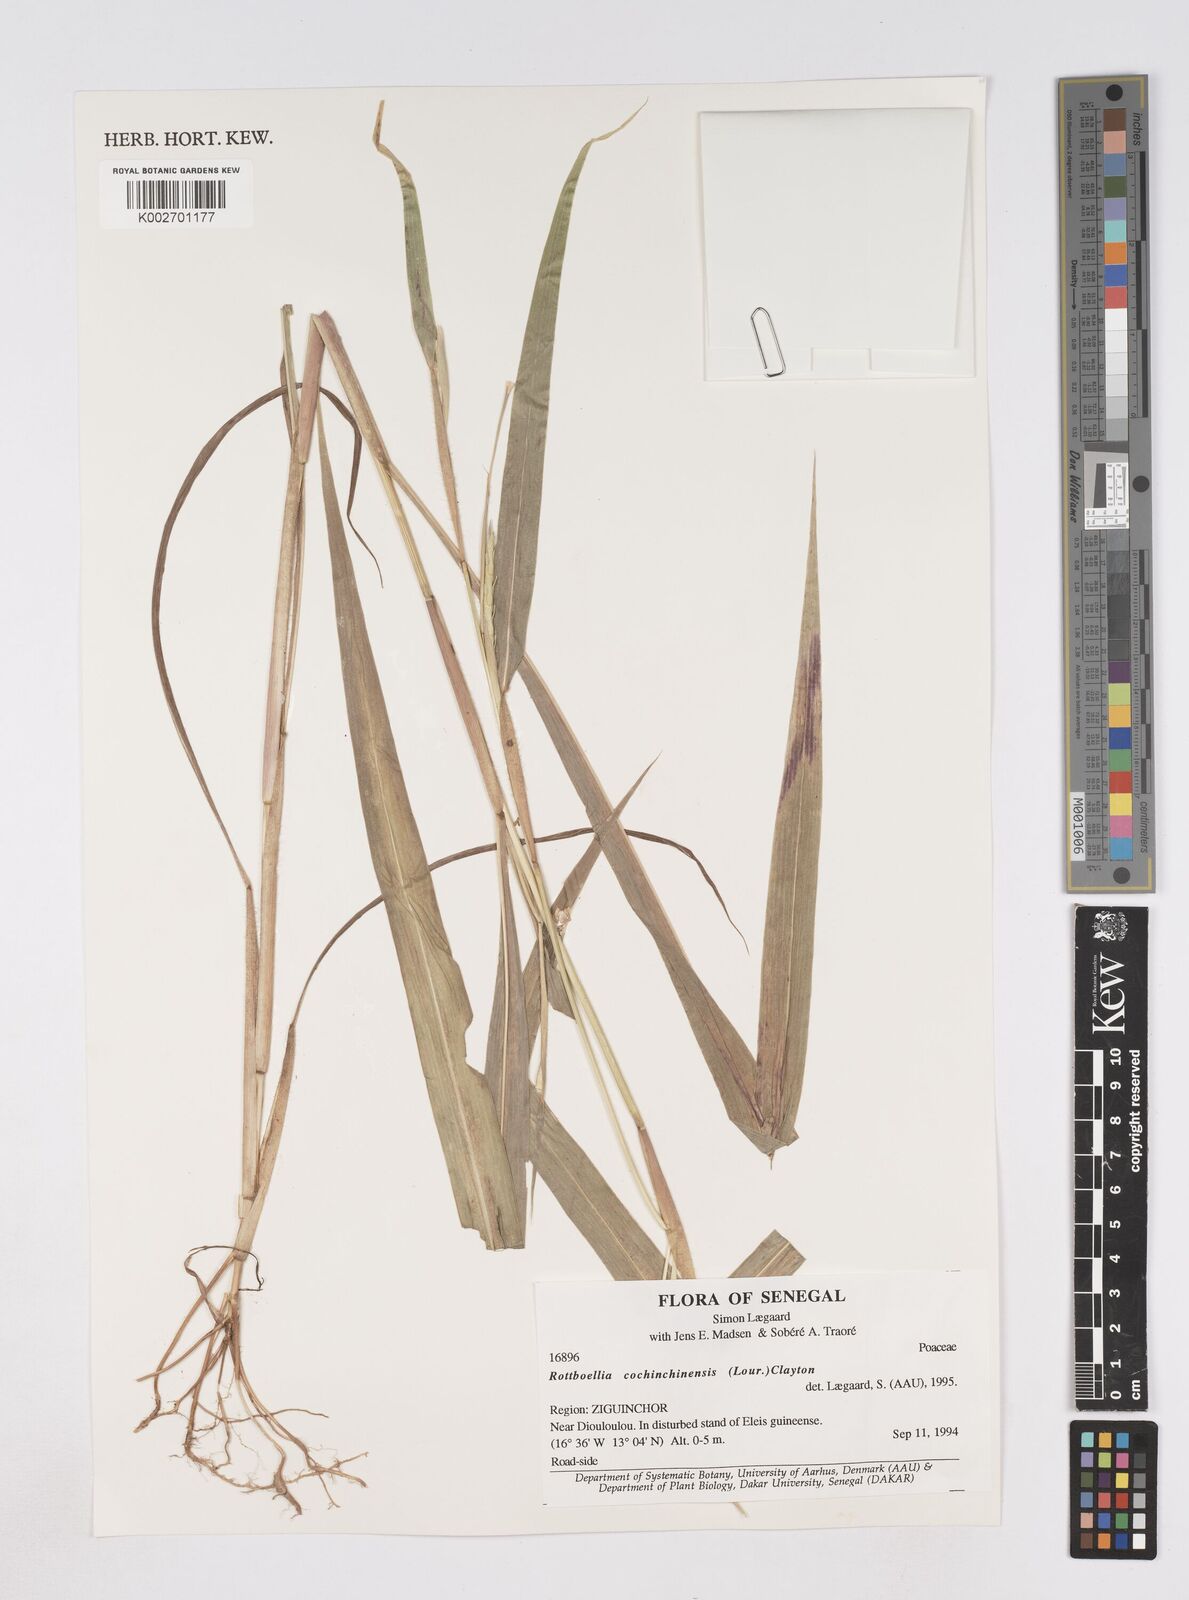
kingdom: Plantae
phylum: Tracheophyta
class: Liliopsida
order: Poales
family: Poaceae
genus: Ophiuros
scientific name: Ophiuros exaltatus
